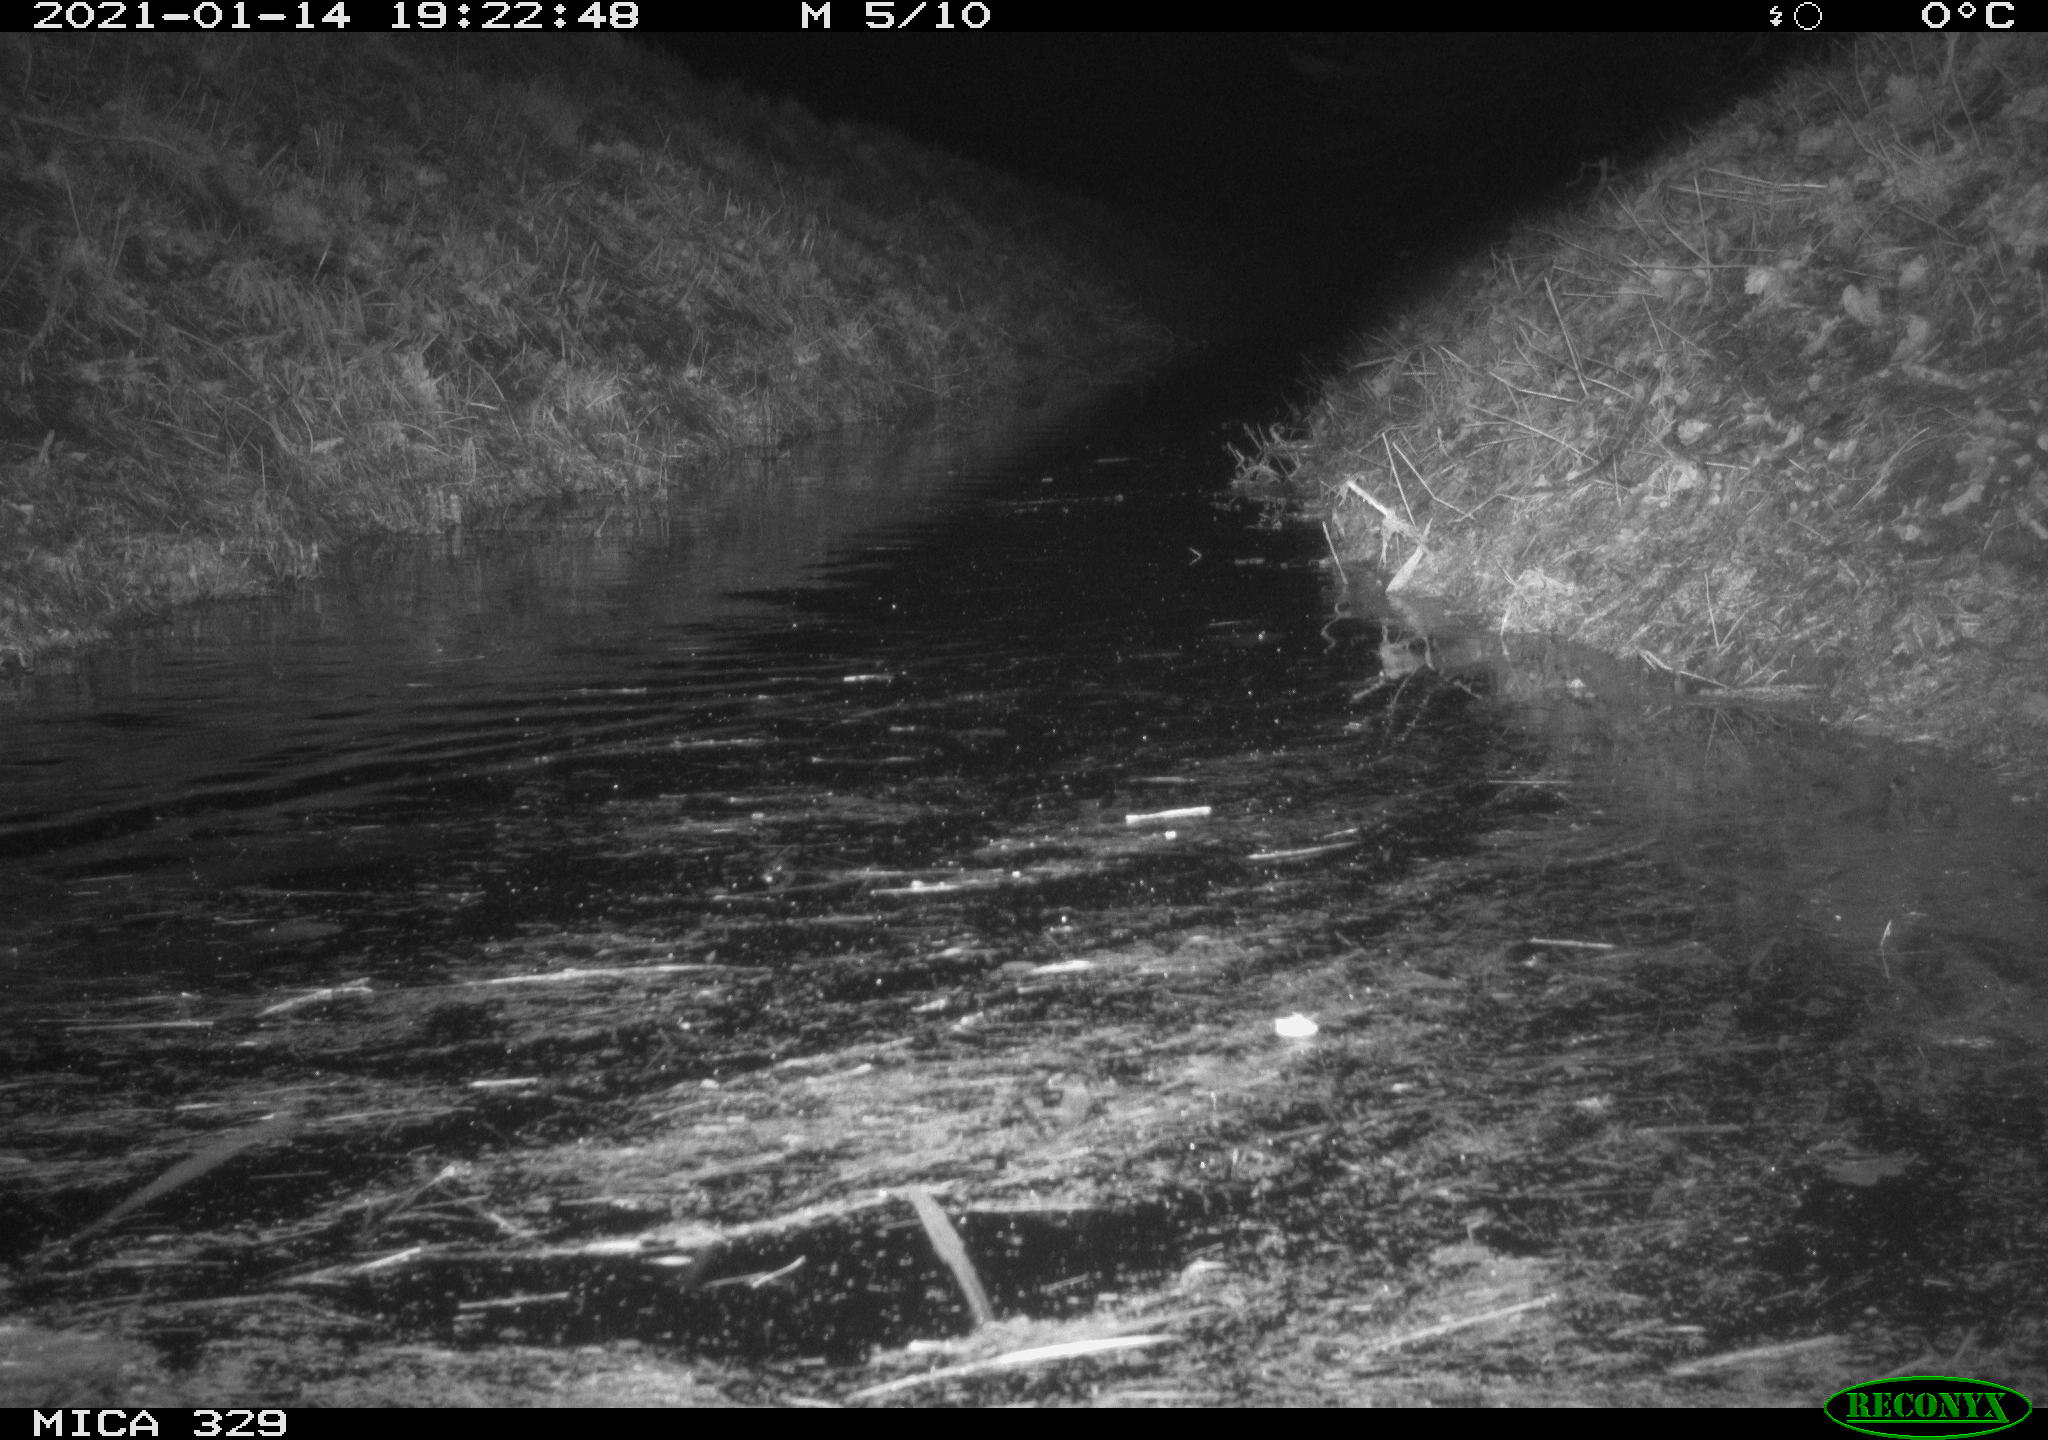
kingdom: Animalia
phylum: Chordata
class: Mammalia
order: Rodentia
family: Myocastoridae
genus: Myocastor
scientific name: Myocastor coypus
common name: Coypu
